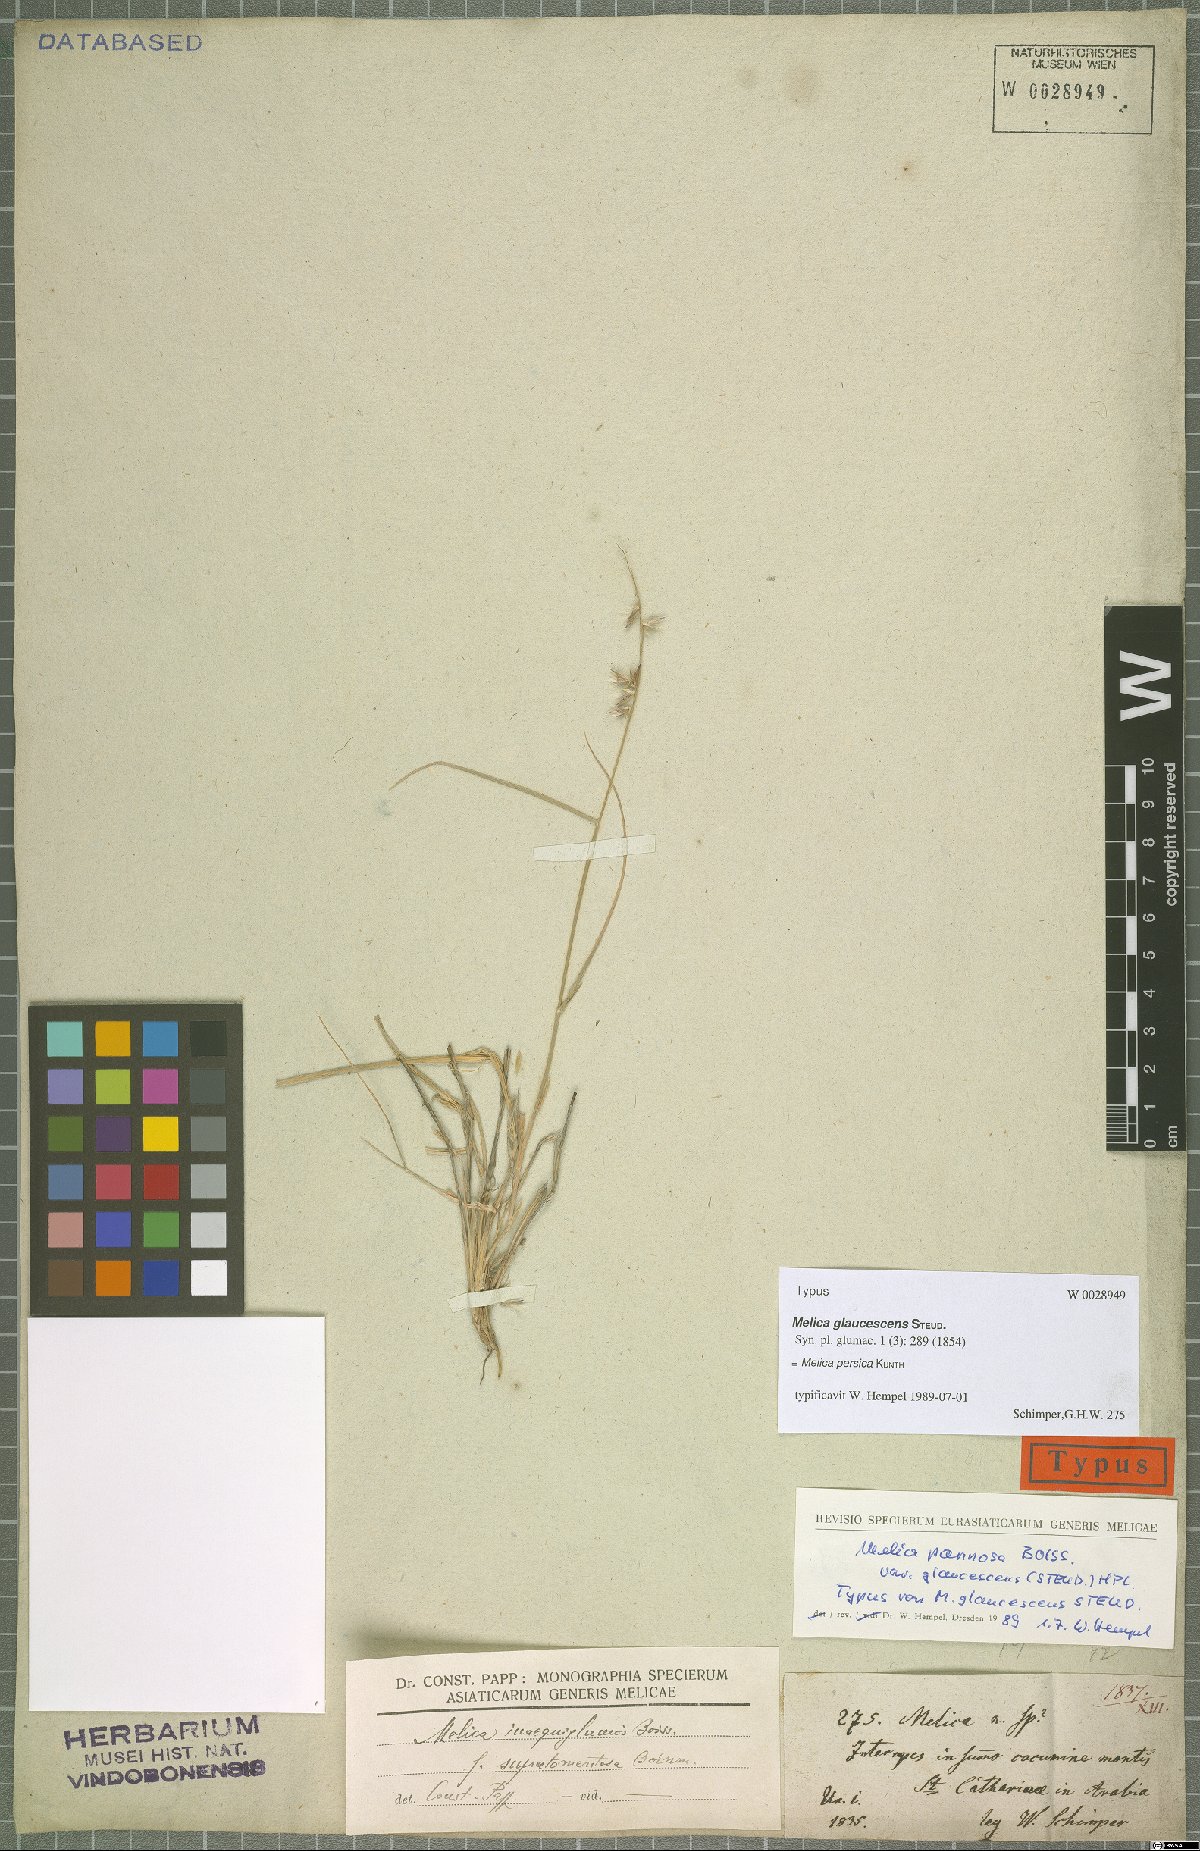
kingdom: Plantae
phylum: Tracheophyta
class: Liliopsida
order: Poales
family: Poaceae
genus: Melica
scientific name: Melica persica
